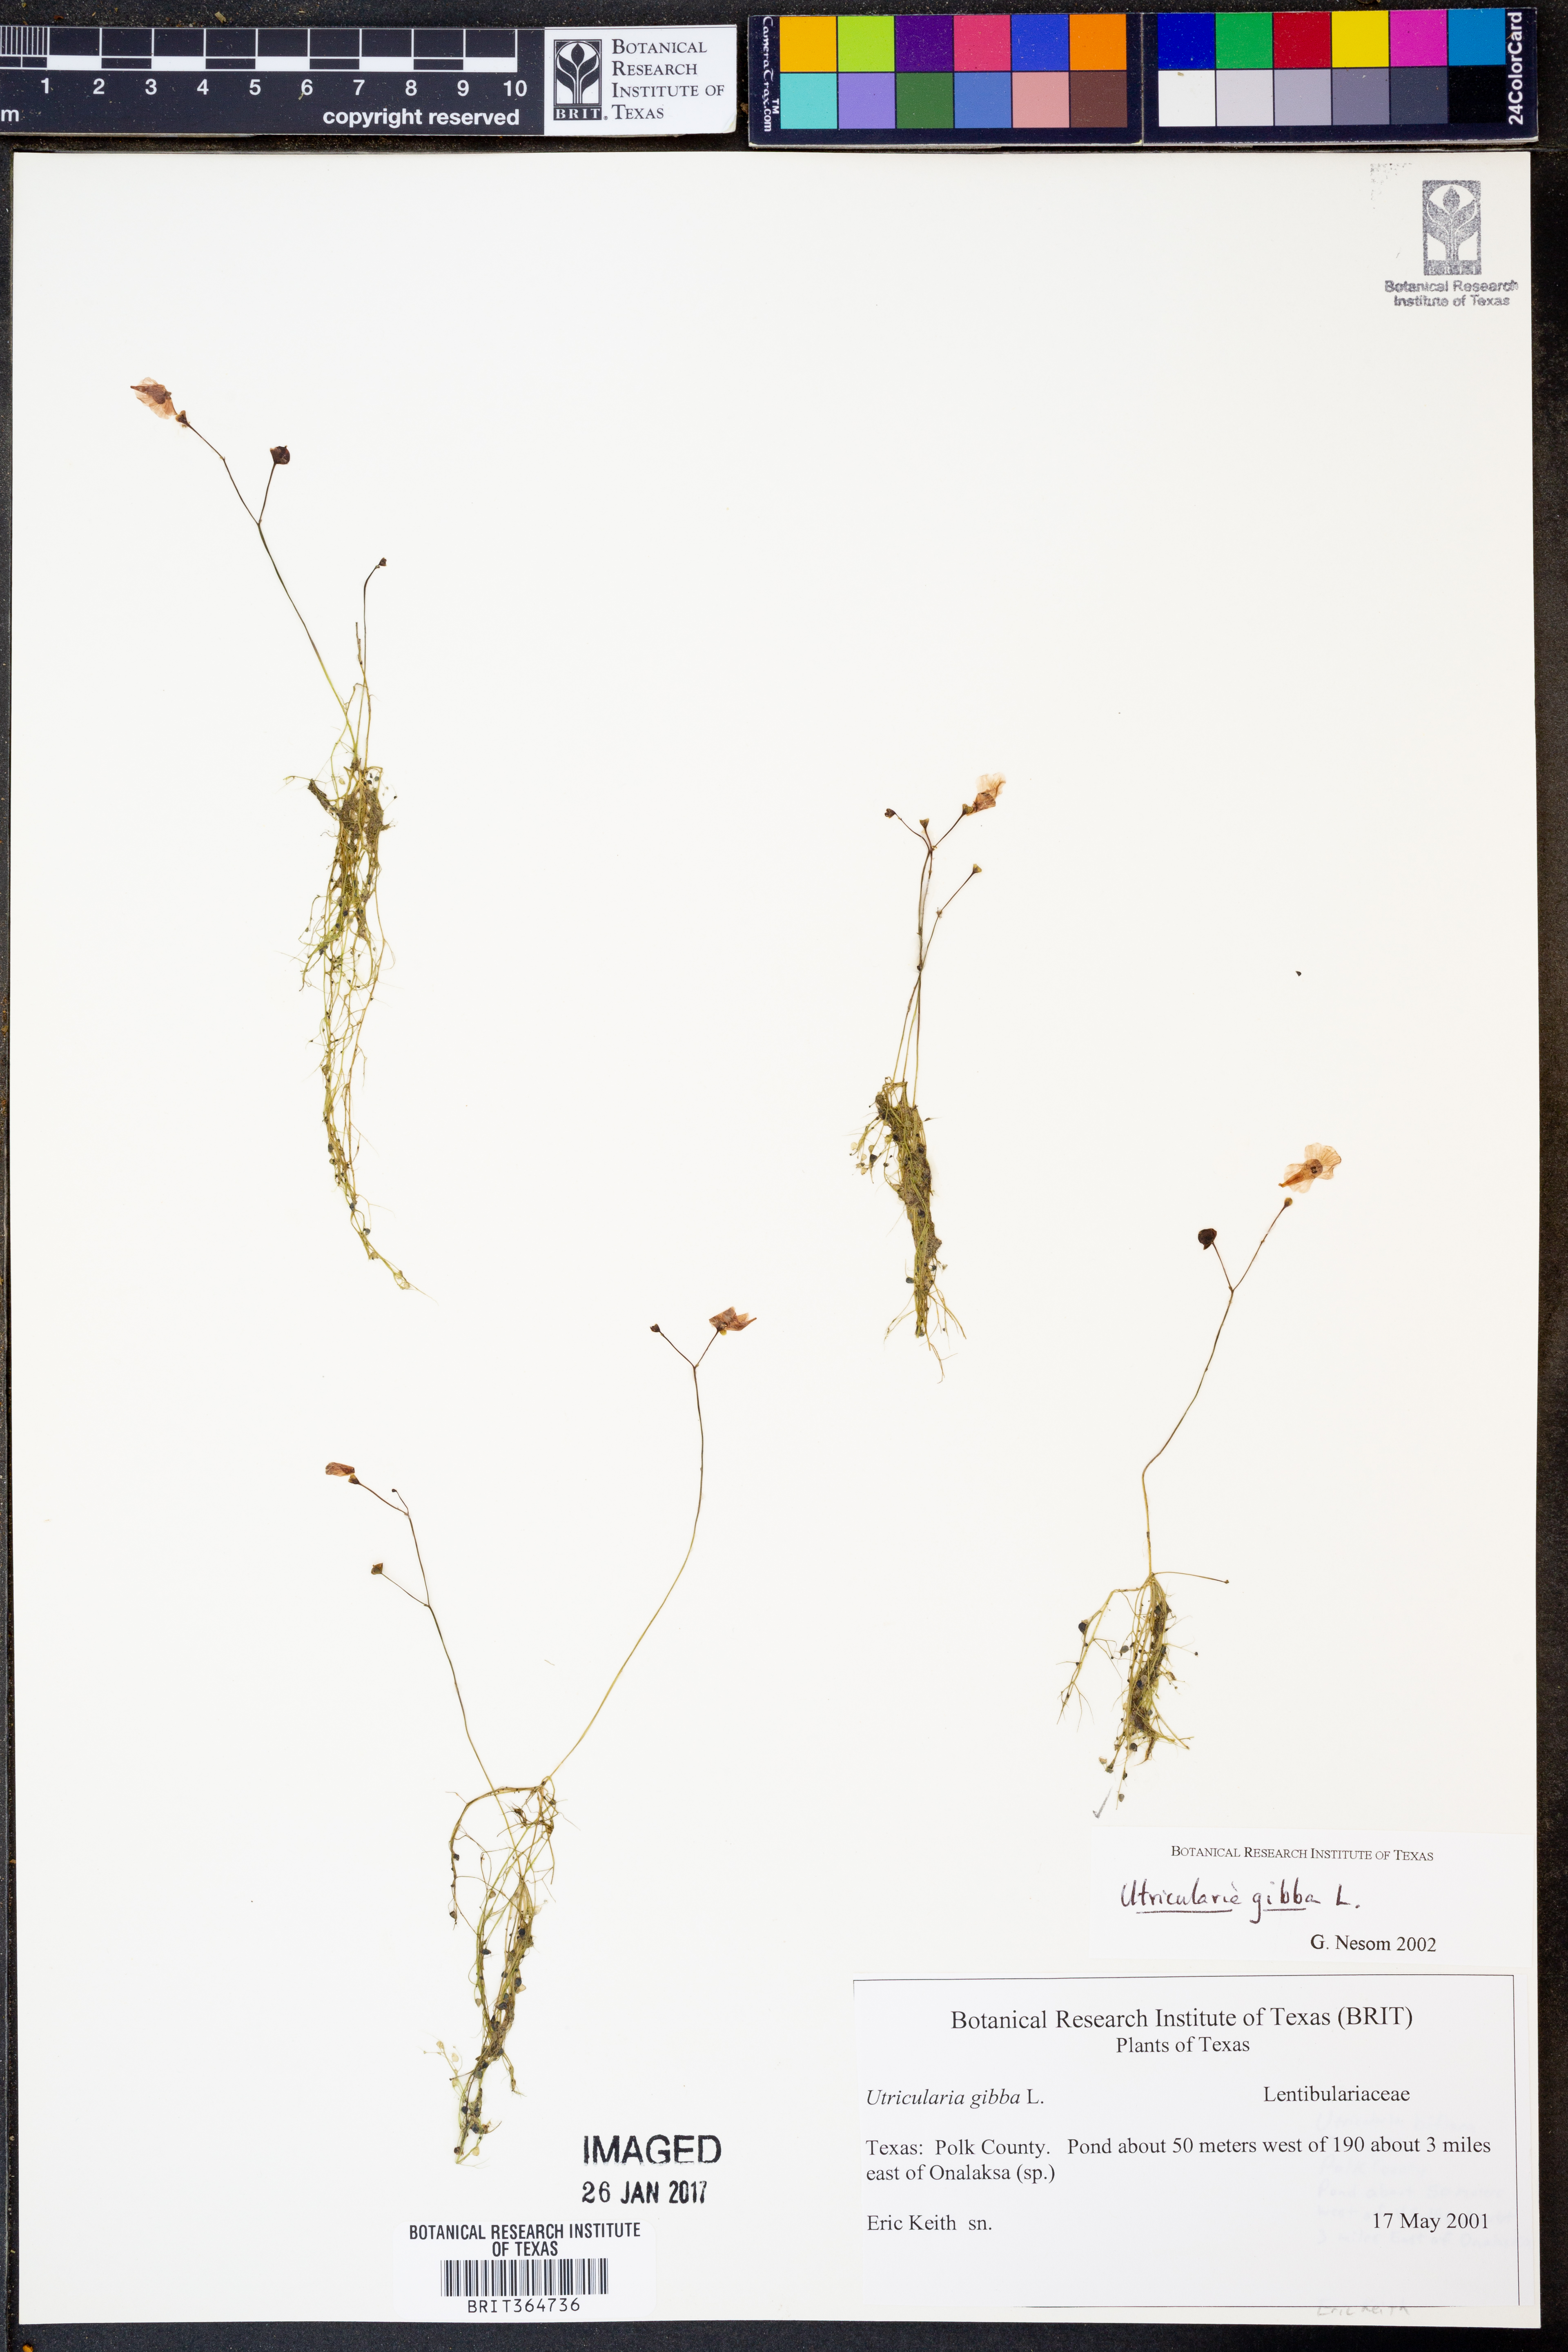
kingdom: Plantae
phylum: Tracheophyta
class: Magnoliopsida
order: Lamiales
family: Lentibulariaceae
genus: Utricularia
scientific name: Utricularia gibba
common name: Humped bladderwort
